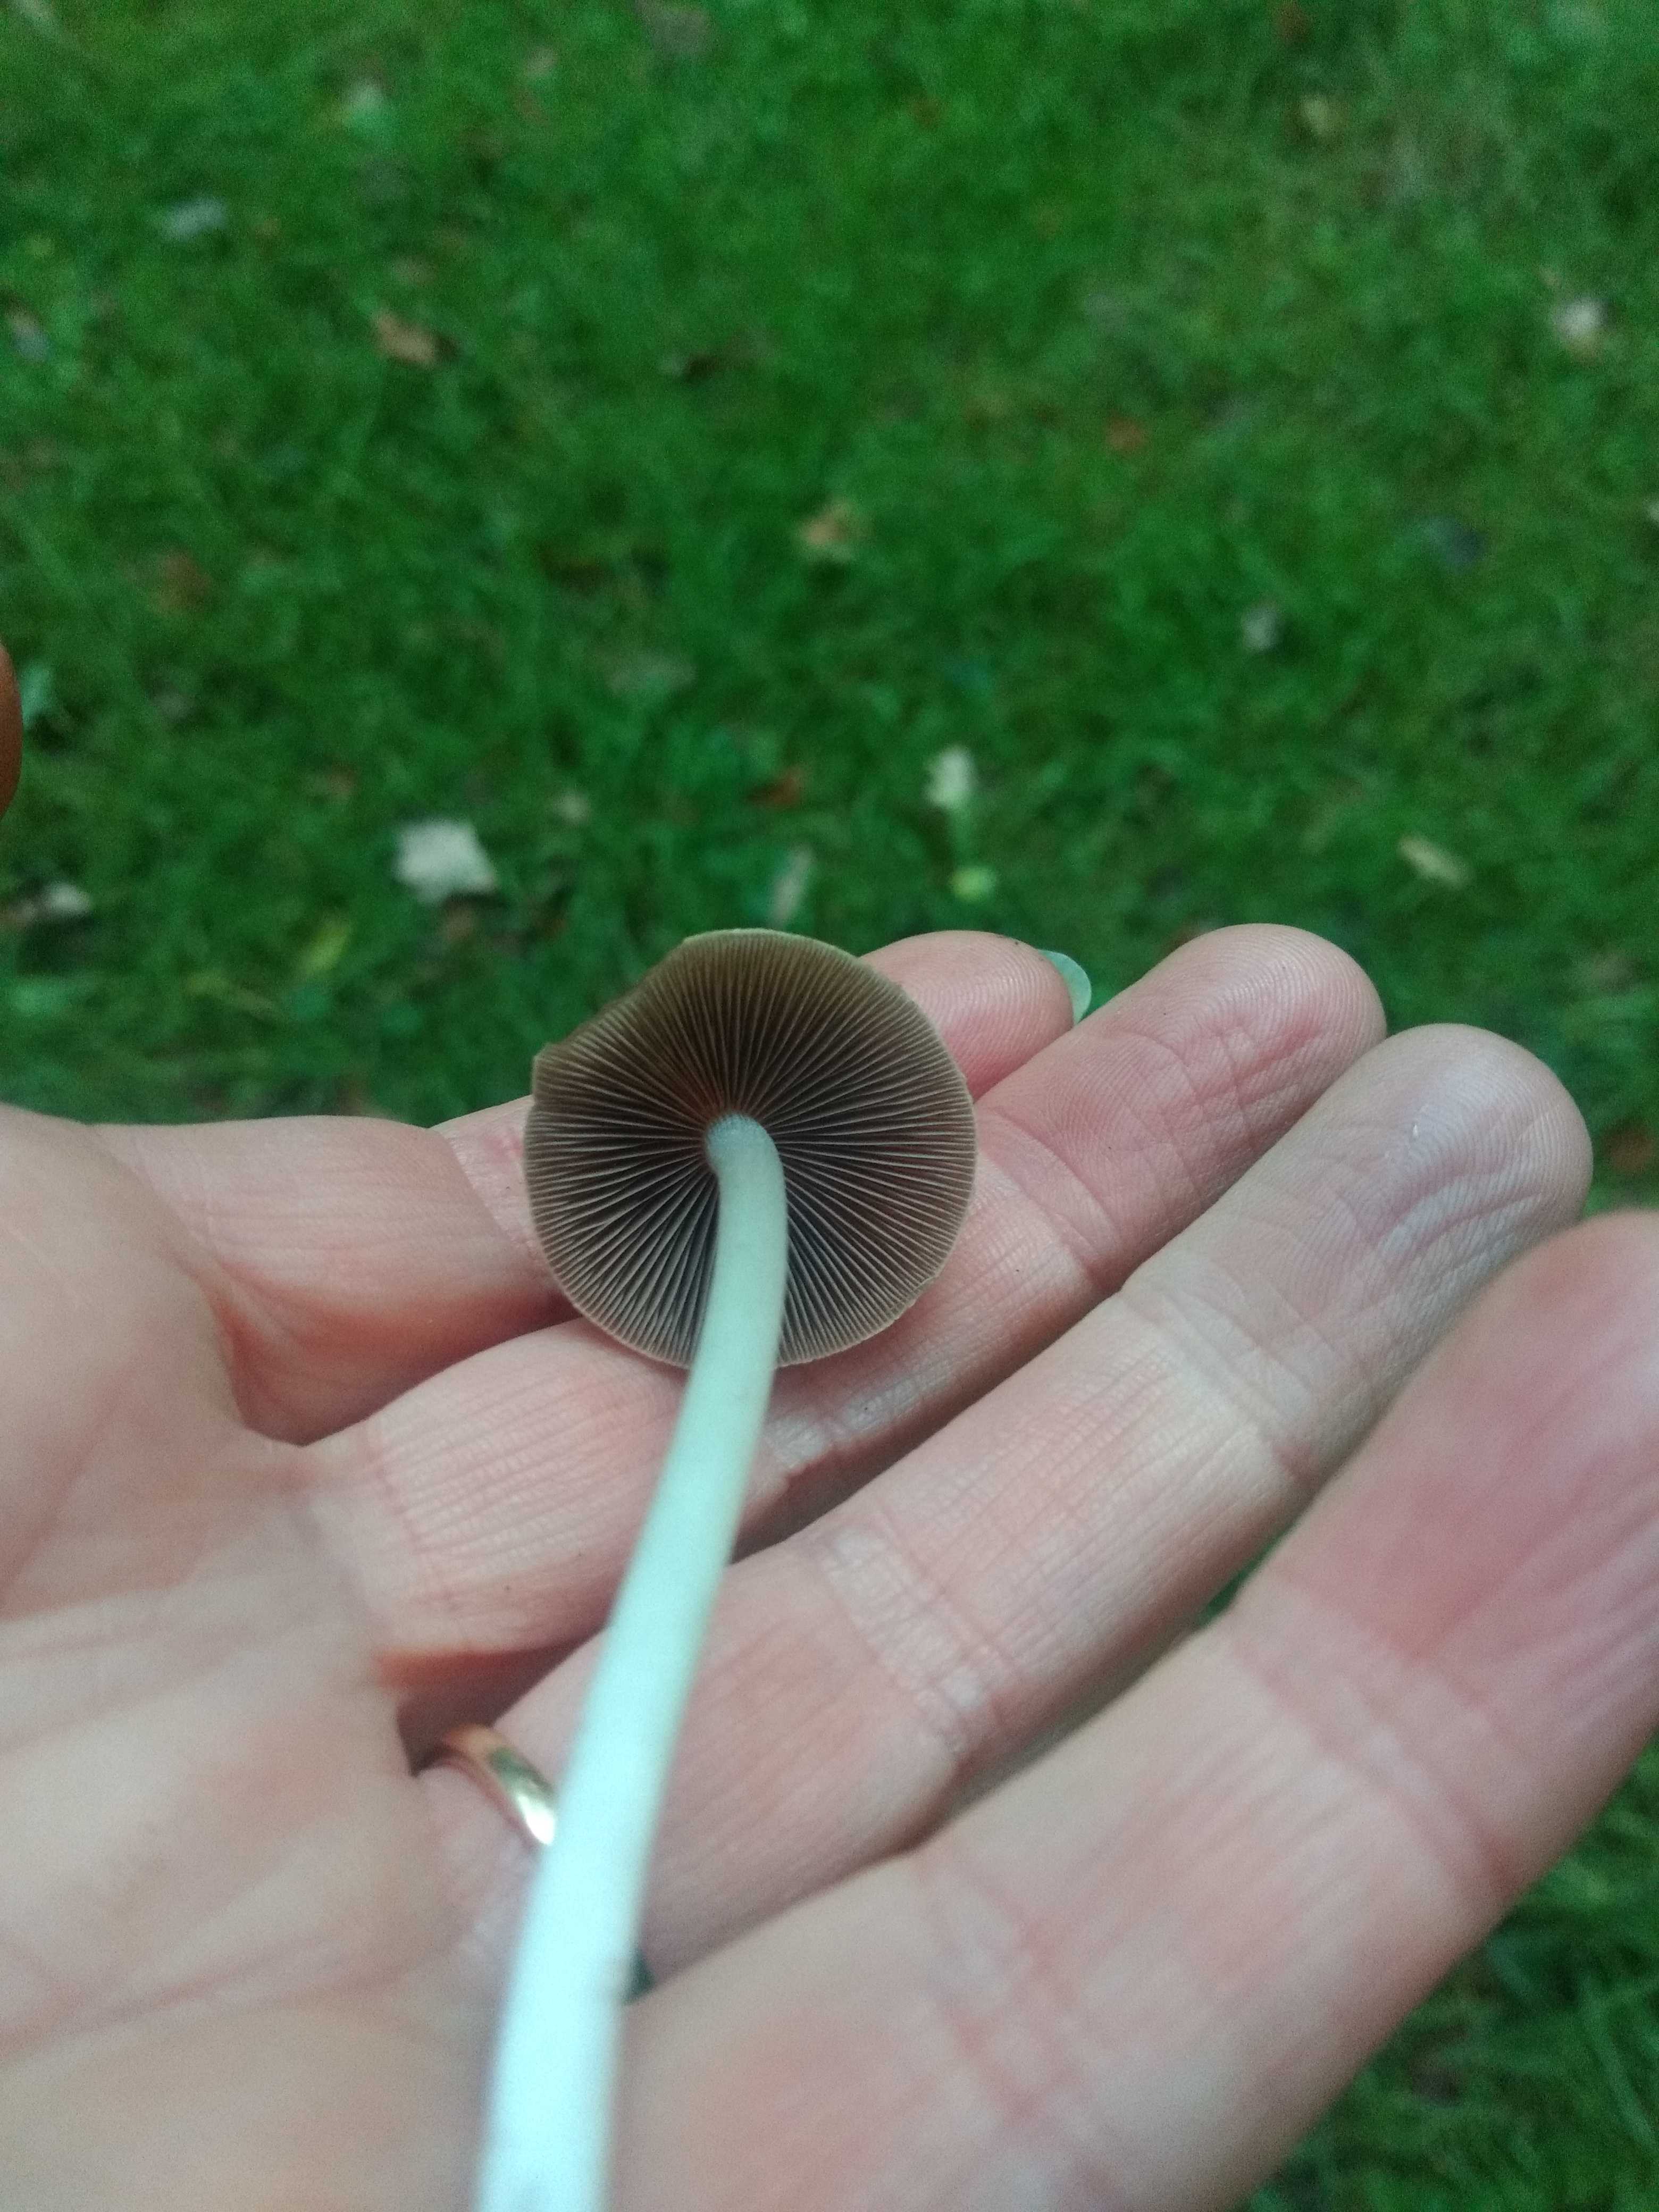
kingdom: Fungi
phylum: Basidiomycota
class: Agaricomycetes
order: Agaricales
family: Psathyrellaceae
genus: Britzelmayria
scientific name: Britzelmayria multipedata
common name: knippe-mørkhat
